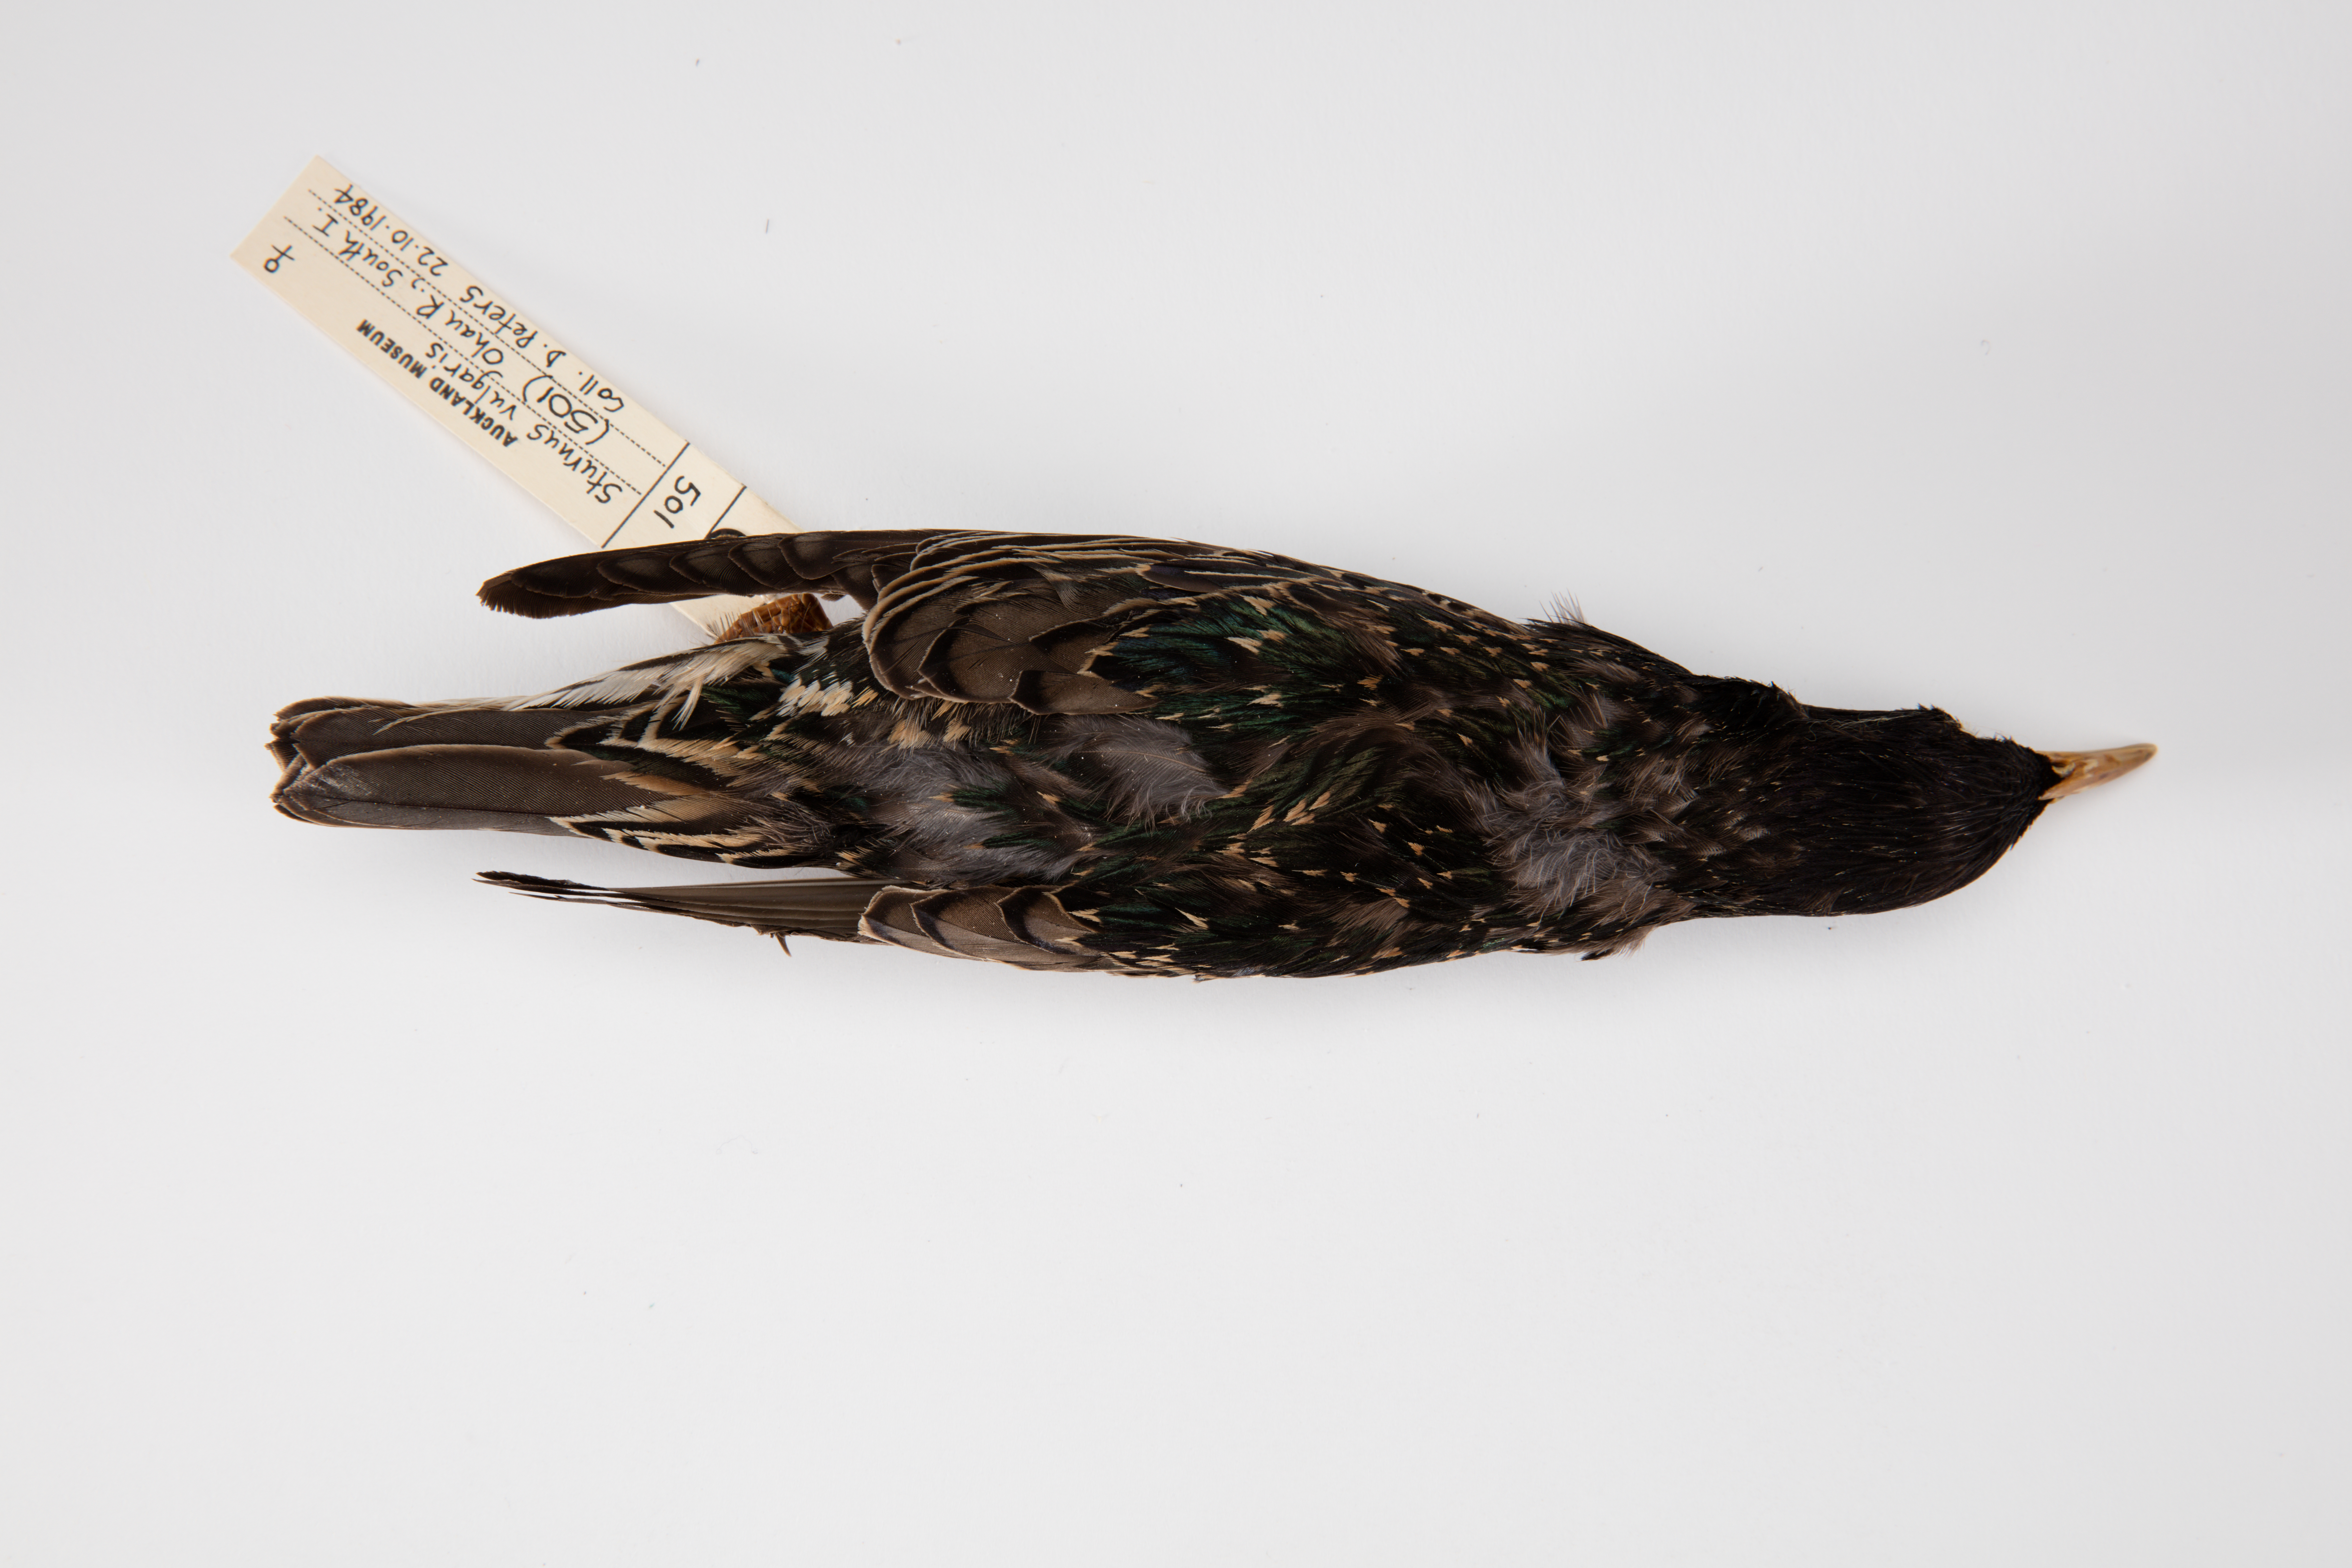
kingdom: Animalia
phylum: Chordata
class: Aves
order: Passeriformes
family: Sturnidae
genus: Sturnus
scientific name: Sturnus vulgaris
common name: Common starling
